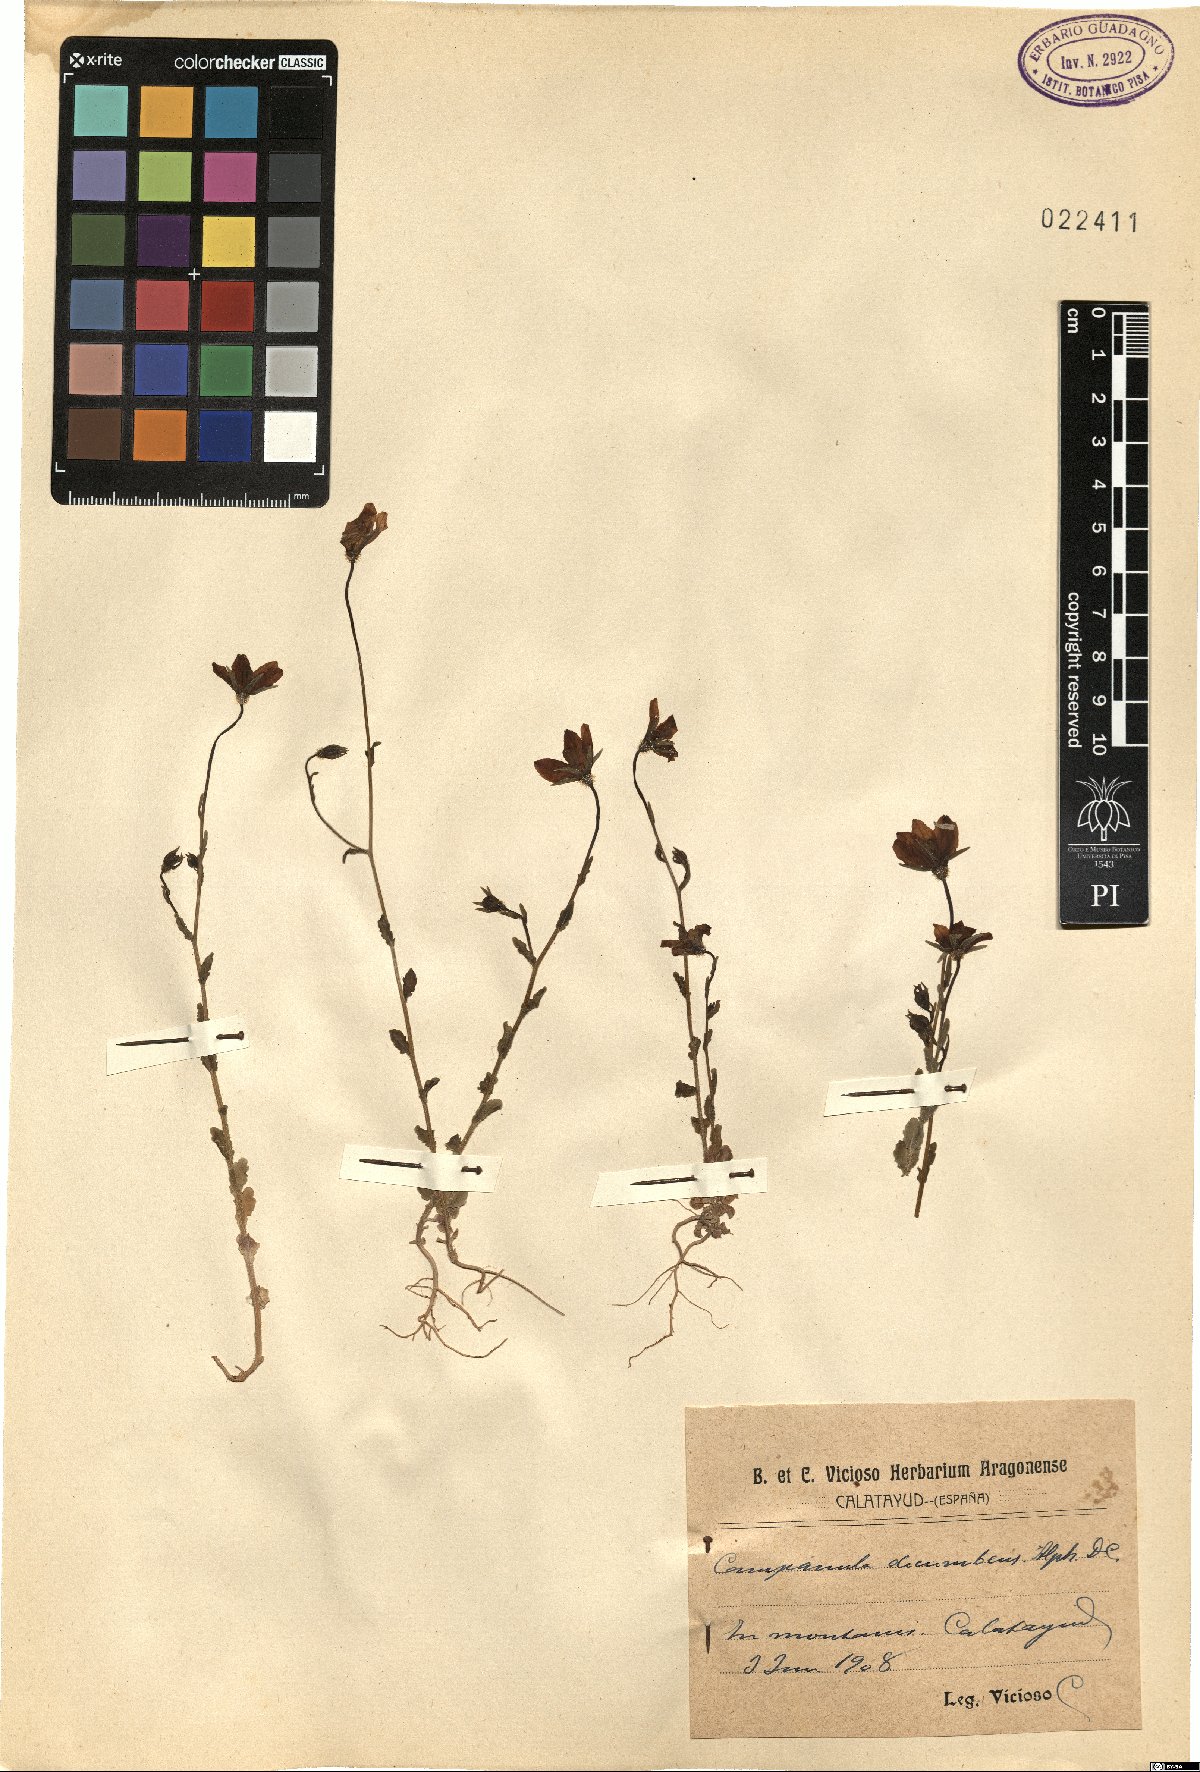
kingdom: Plantae
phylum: Tracheophyta
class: Magnoliopsida
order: Asterales
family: Campanulaceae
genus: Campanula
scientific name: Campanula decumbens
